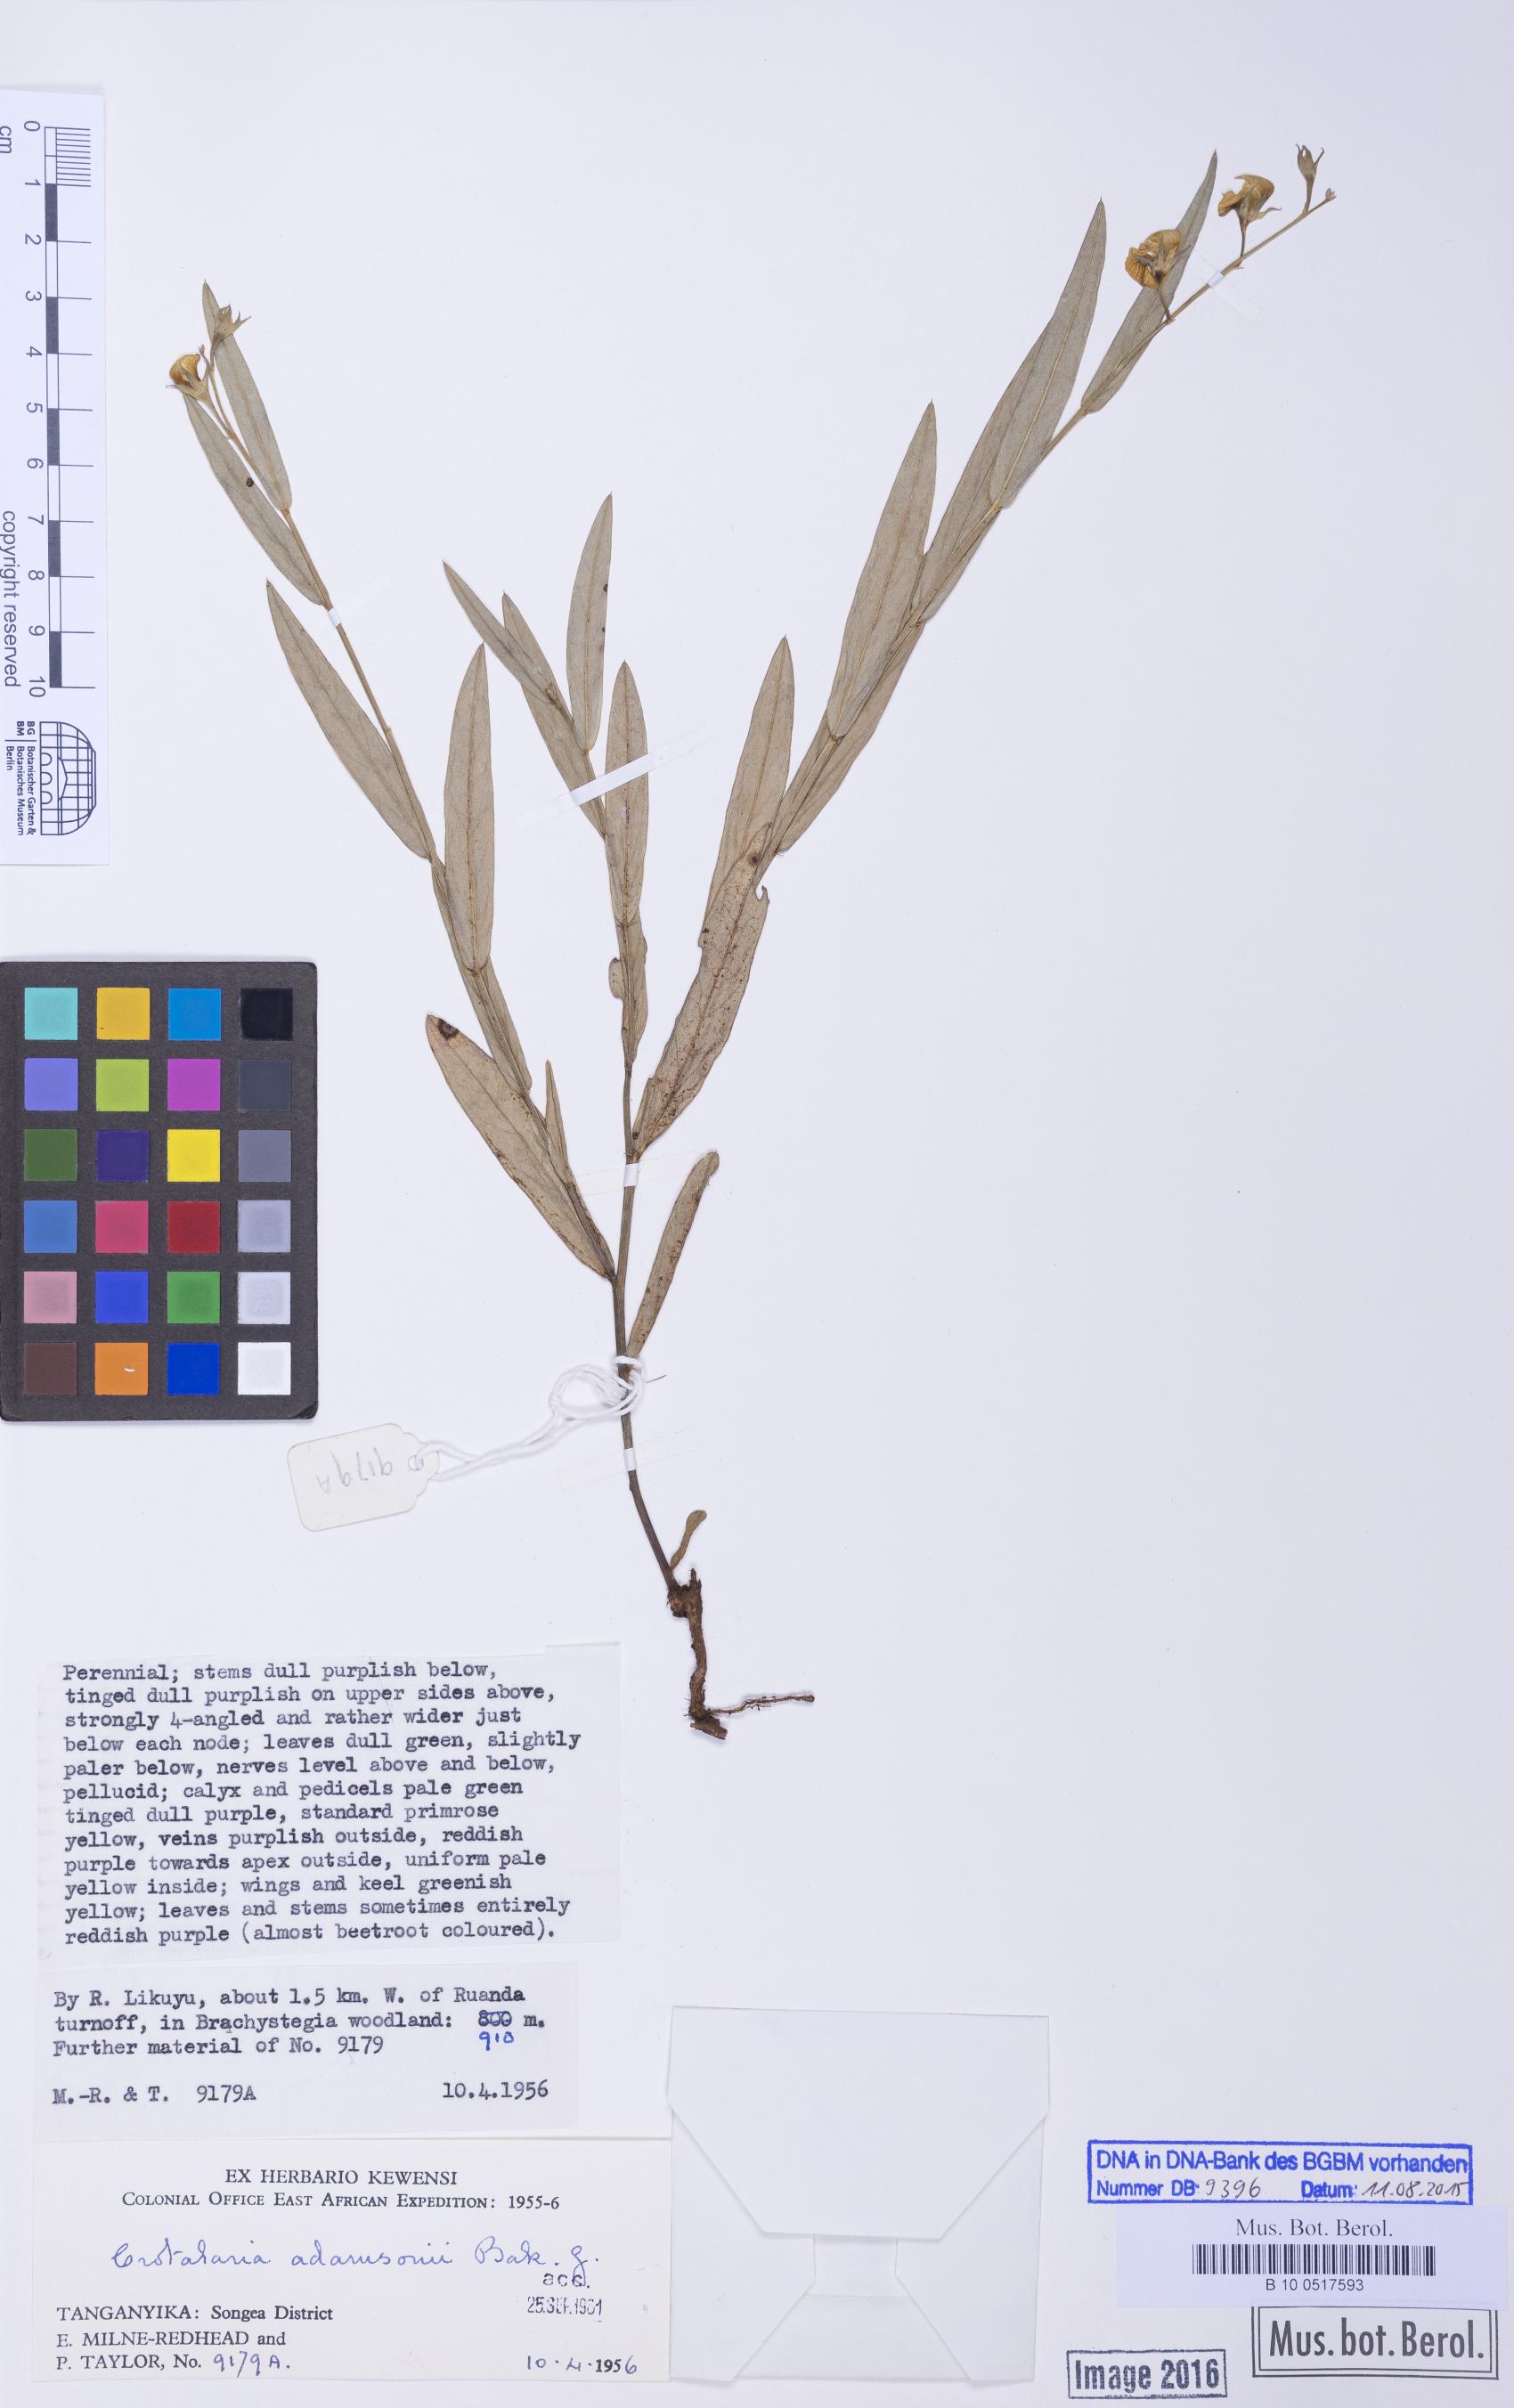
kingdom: Plantae
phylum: Tracheophyta
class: Magnoliopsida
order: Fabales
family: Fabaceae
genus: Crotalaria
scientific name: Crotalaria adamsonii
